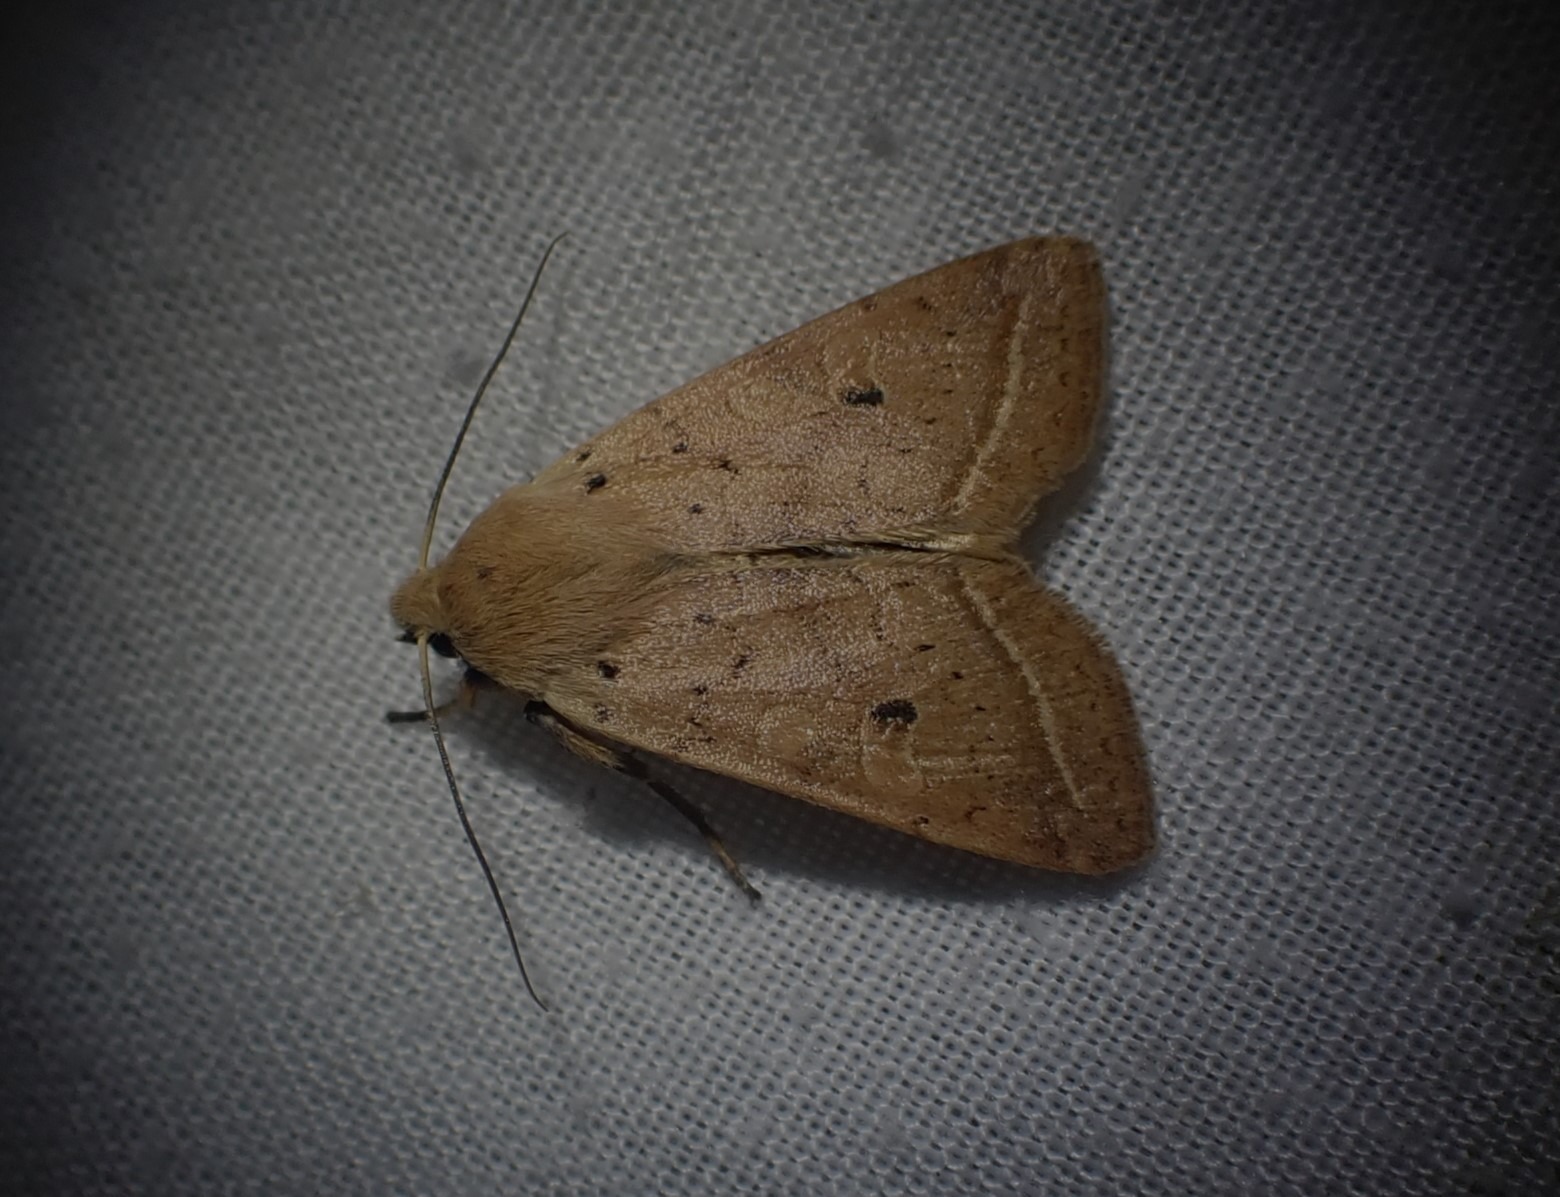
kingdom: Animalia
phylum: Arthropoda
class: Insecta
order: Lepidoptera
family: Noctuidae
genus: Agrochola
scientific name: Agrochola Leptologia macilenta
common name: Mager jordfarveugle
